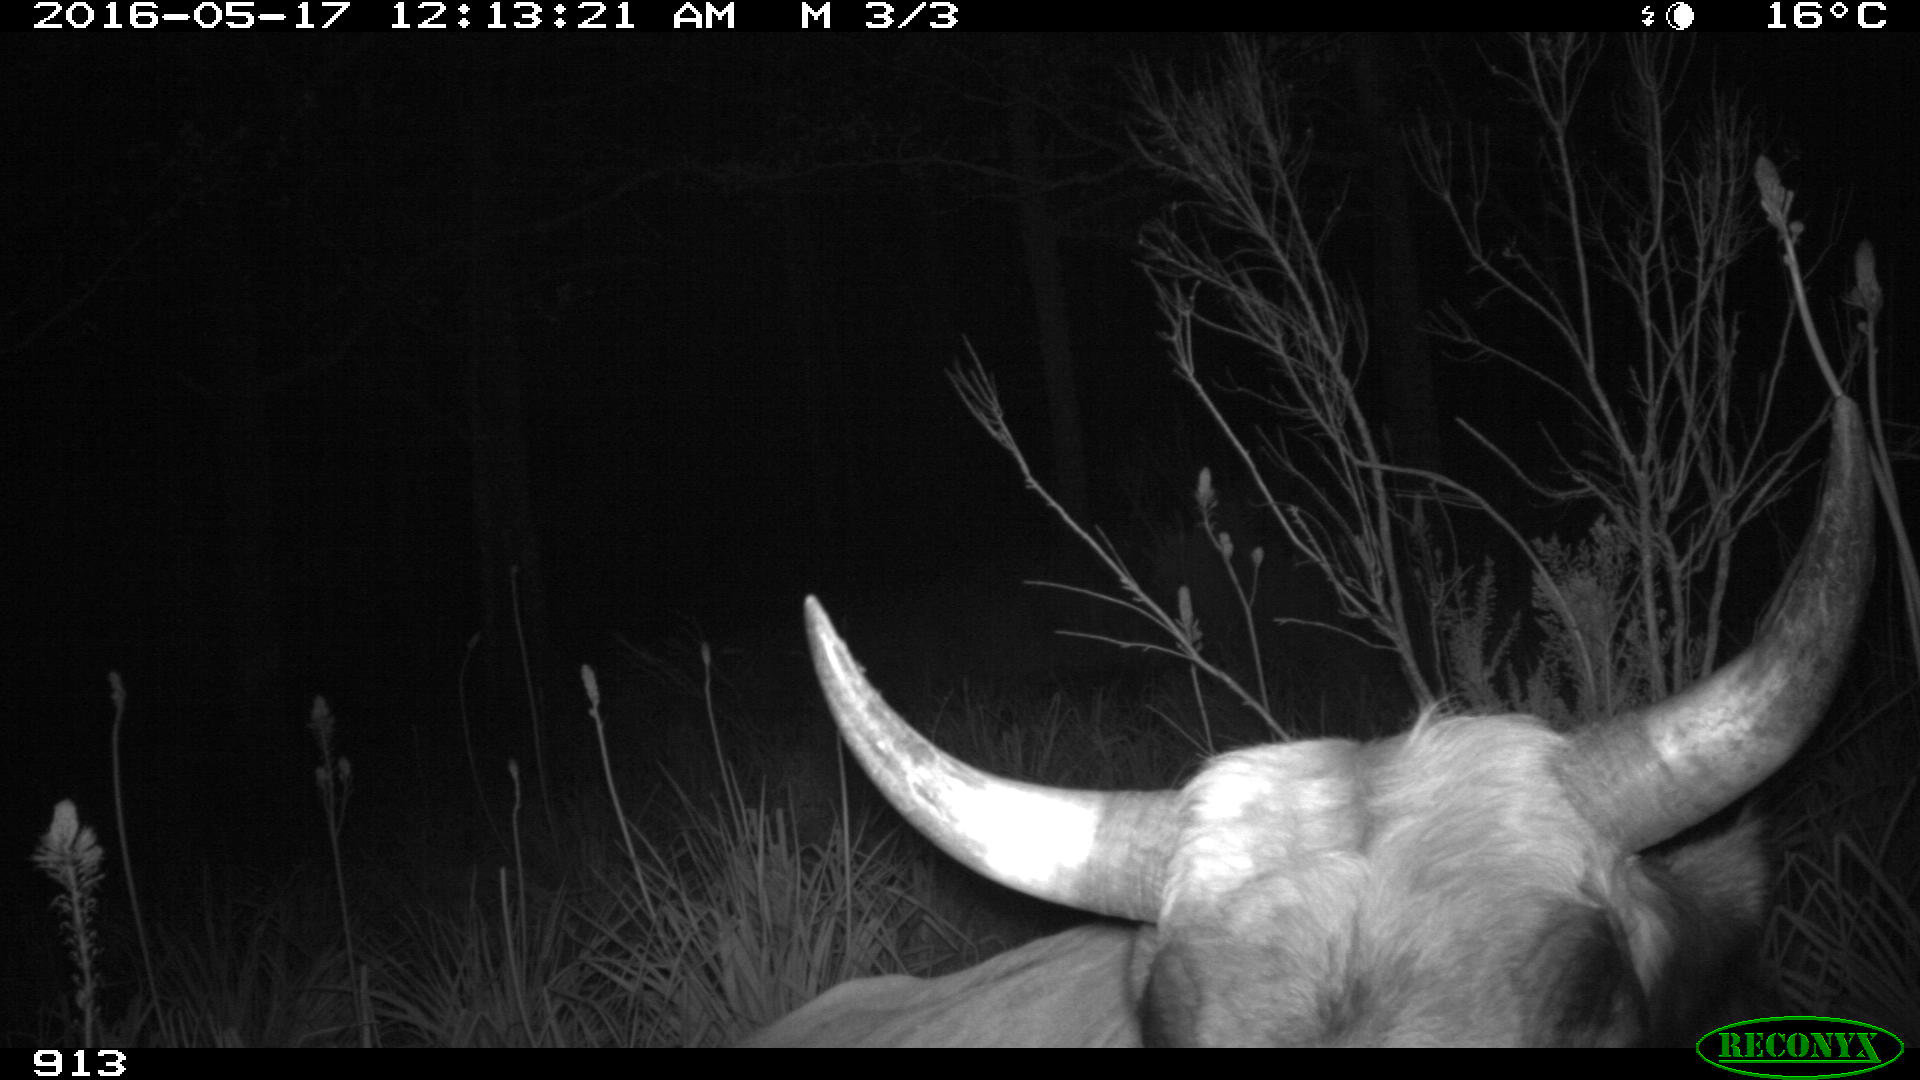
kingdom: Animalia
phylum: Chordata
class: Mammalia
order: Artiodactyla
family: Bovidae
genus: Bos
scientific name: Bos taurus
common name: Domesticated cattle
